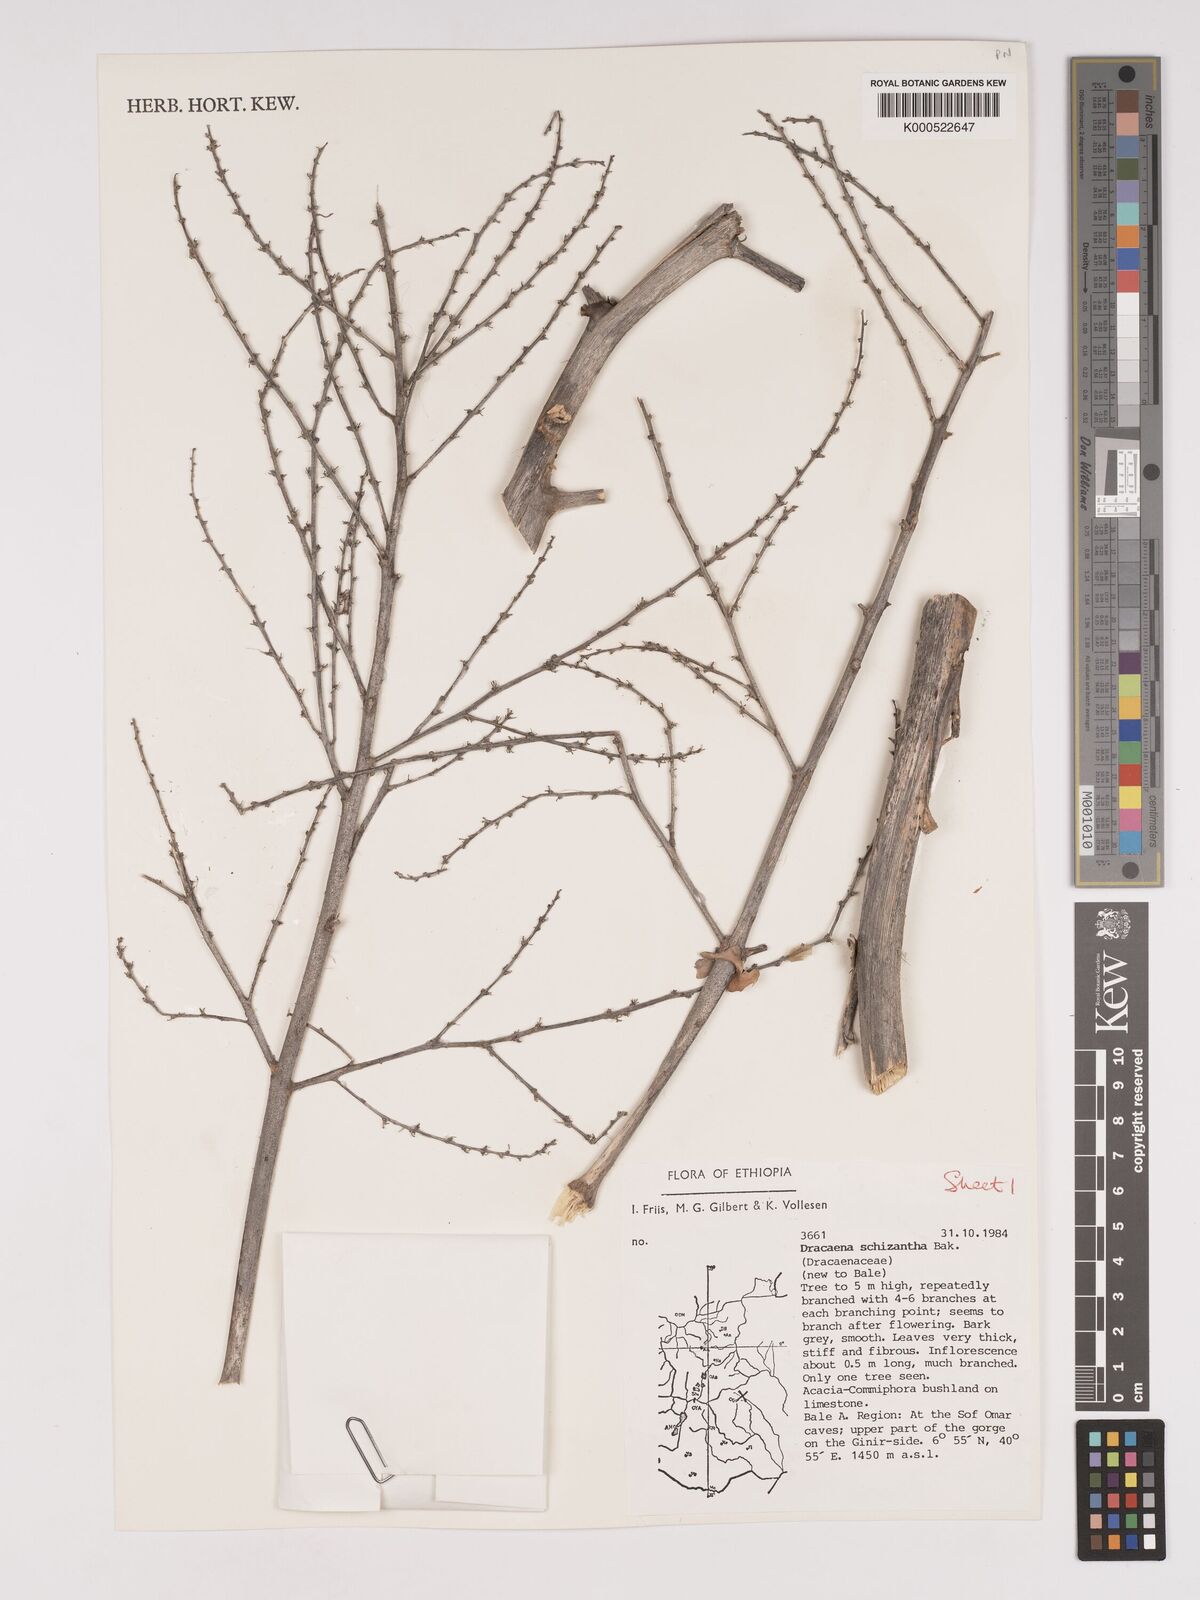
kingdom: Plantae
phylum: Tracheophyta
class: Liliopsida
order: Asparagales
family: Asparagaceae
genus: Dracaena
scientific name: Dracaena ombet
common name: Gabal elba dragon tree
